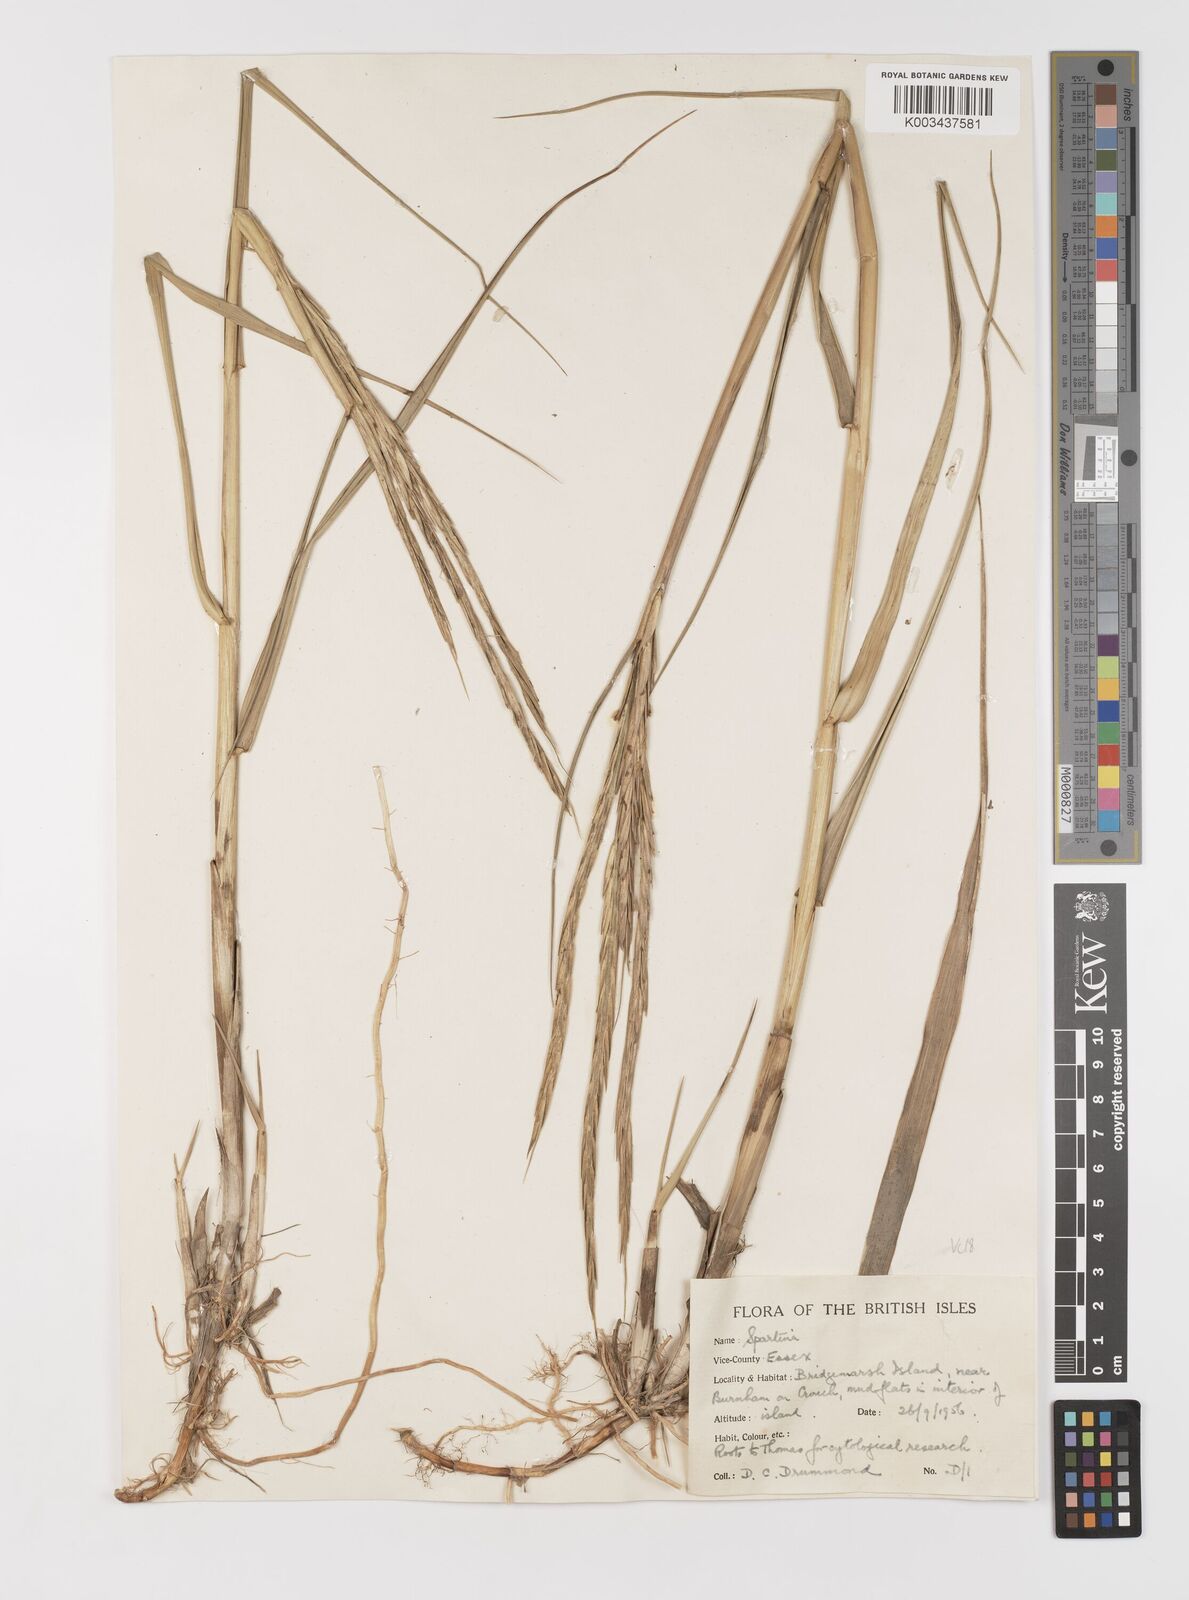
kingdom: Plantae
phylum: Tracheophyta
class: Liliopsida
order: Poales
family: Poaceae
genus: Sporobolus
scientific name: Sporobolus anglicus
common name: English cordgrass
